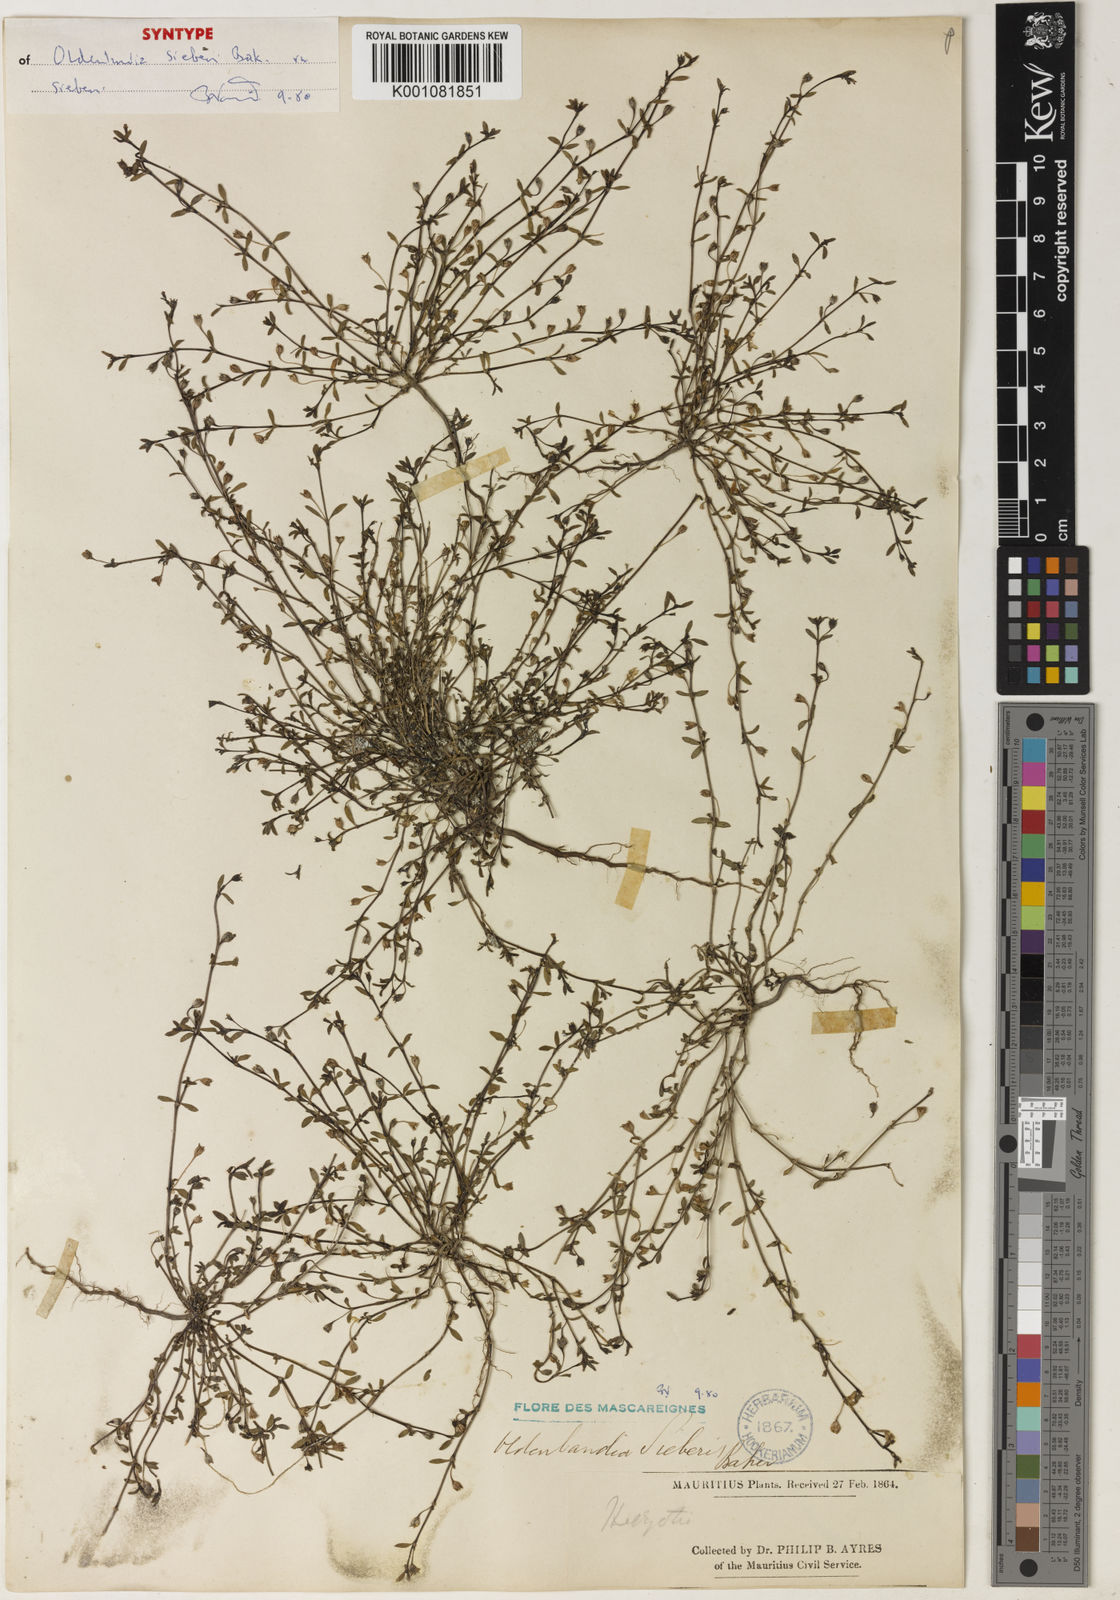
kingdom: Plantae
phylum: Tracheophyta
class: Magnoliopsida
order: Gentianales
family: Rubiaceae
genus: Oldenlandia
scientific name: Oldenlandia sieberi
